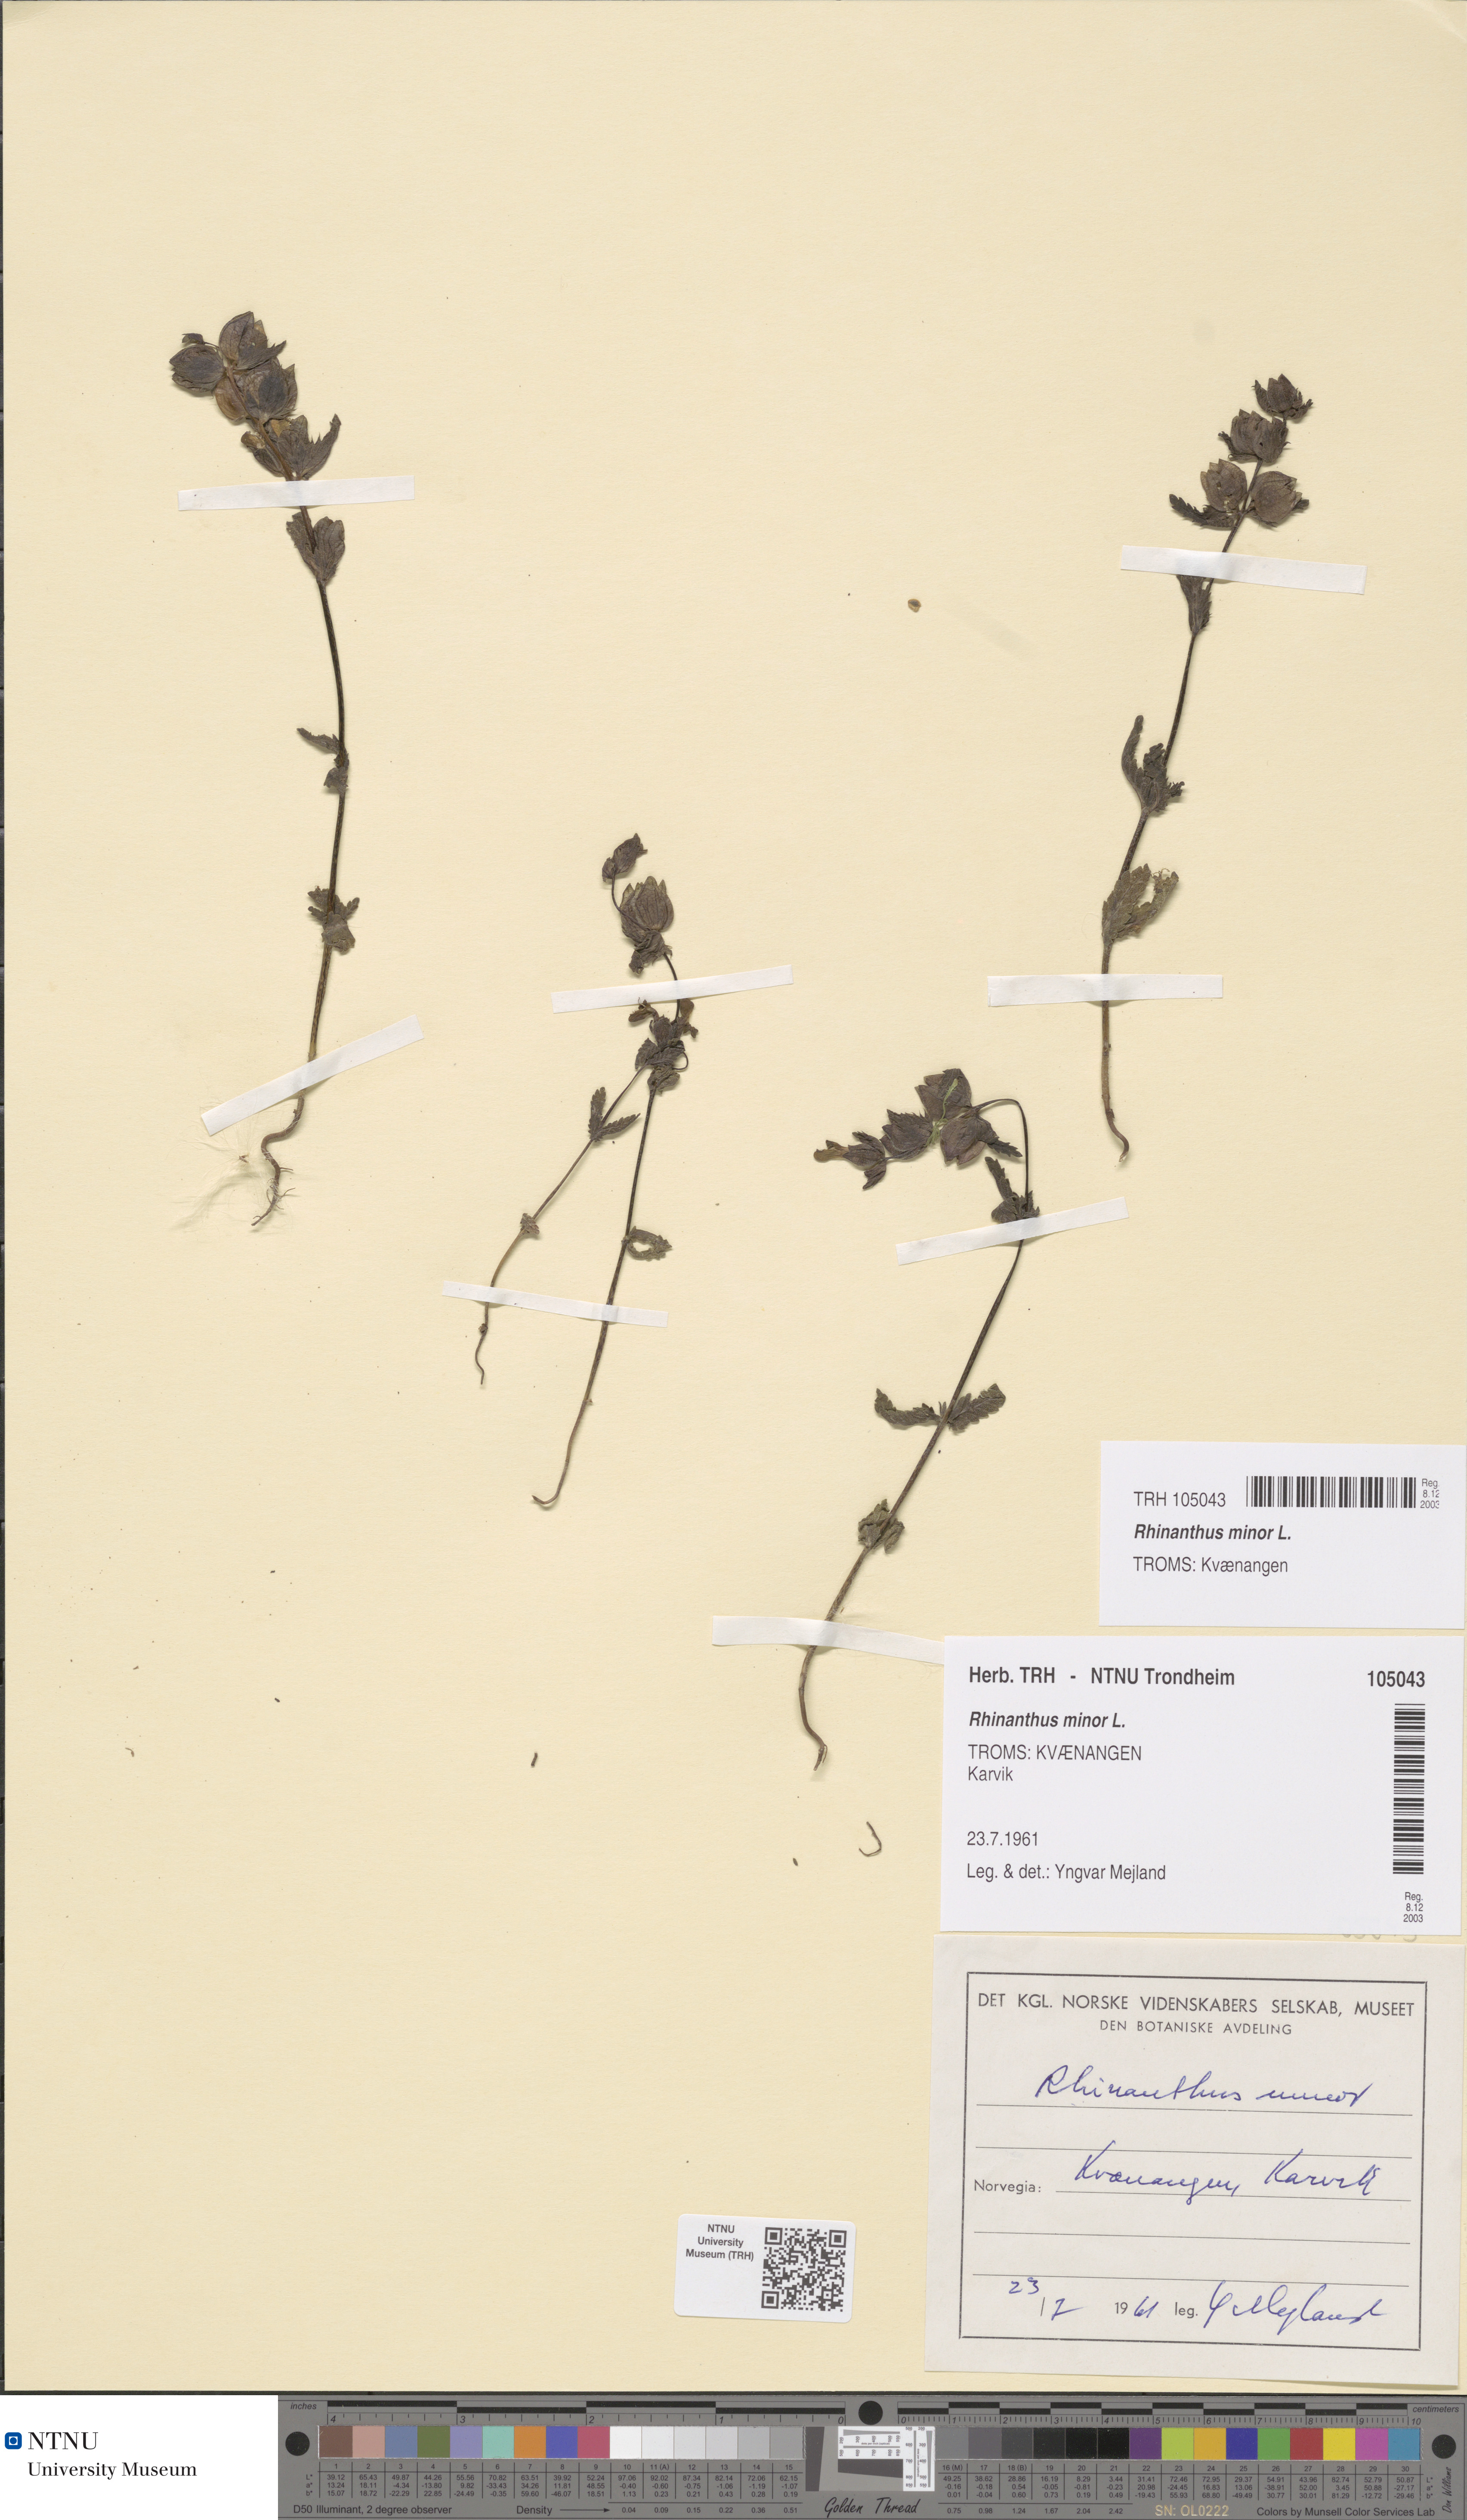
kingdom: Plantae
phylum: Tracheophyta
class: Magnoliopsida
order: Lamiales
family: Orobanchaceae
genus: Rhinanthus
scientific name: Rhinanthus minor
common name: Yellow-rattle
